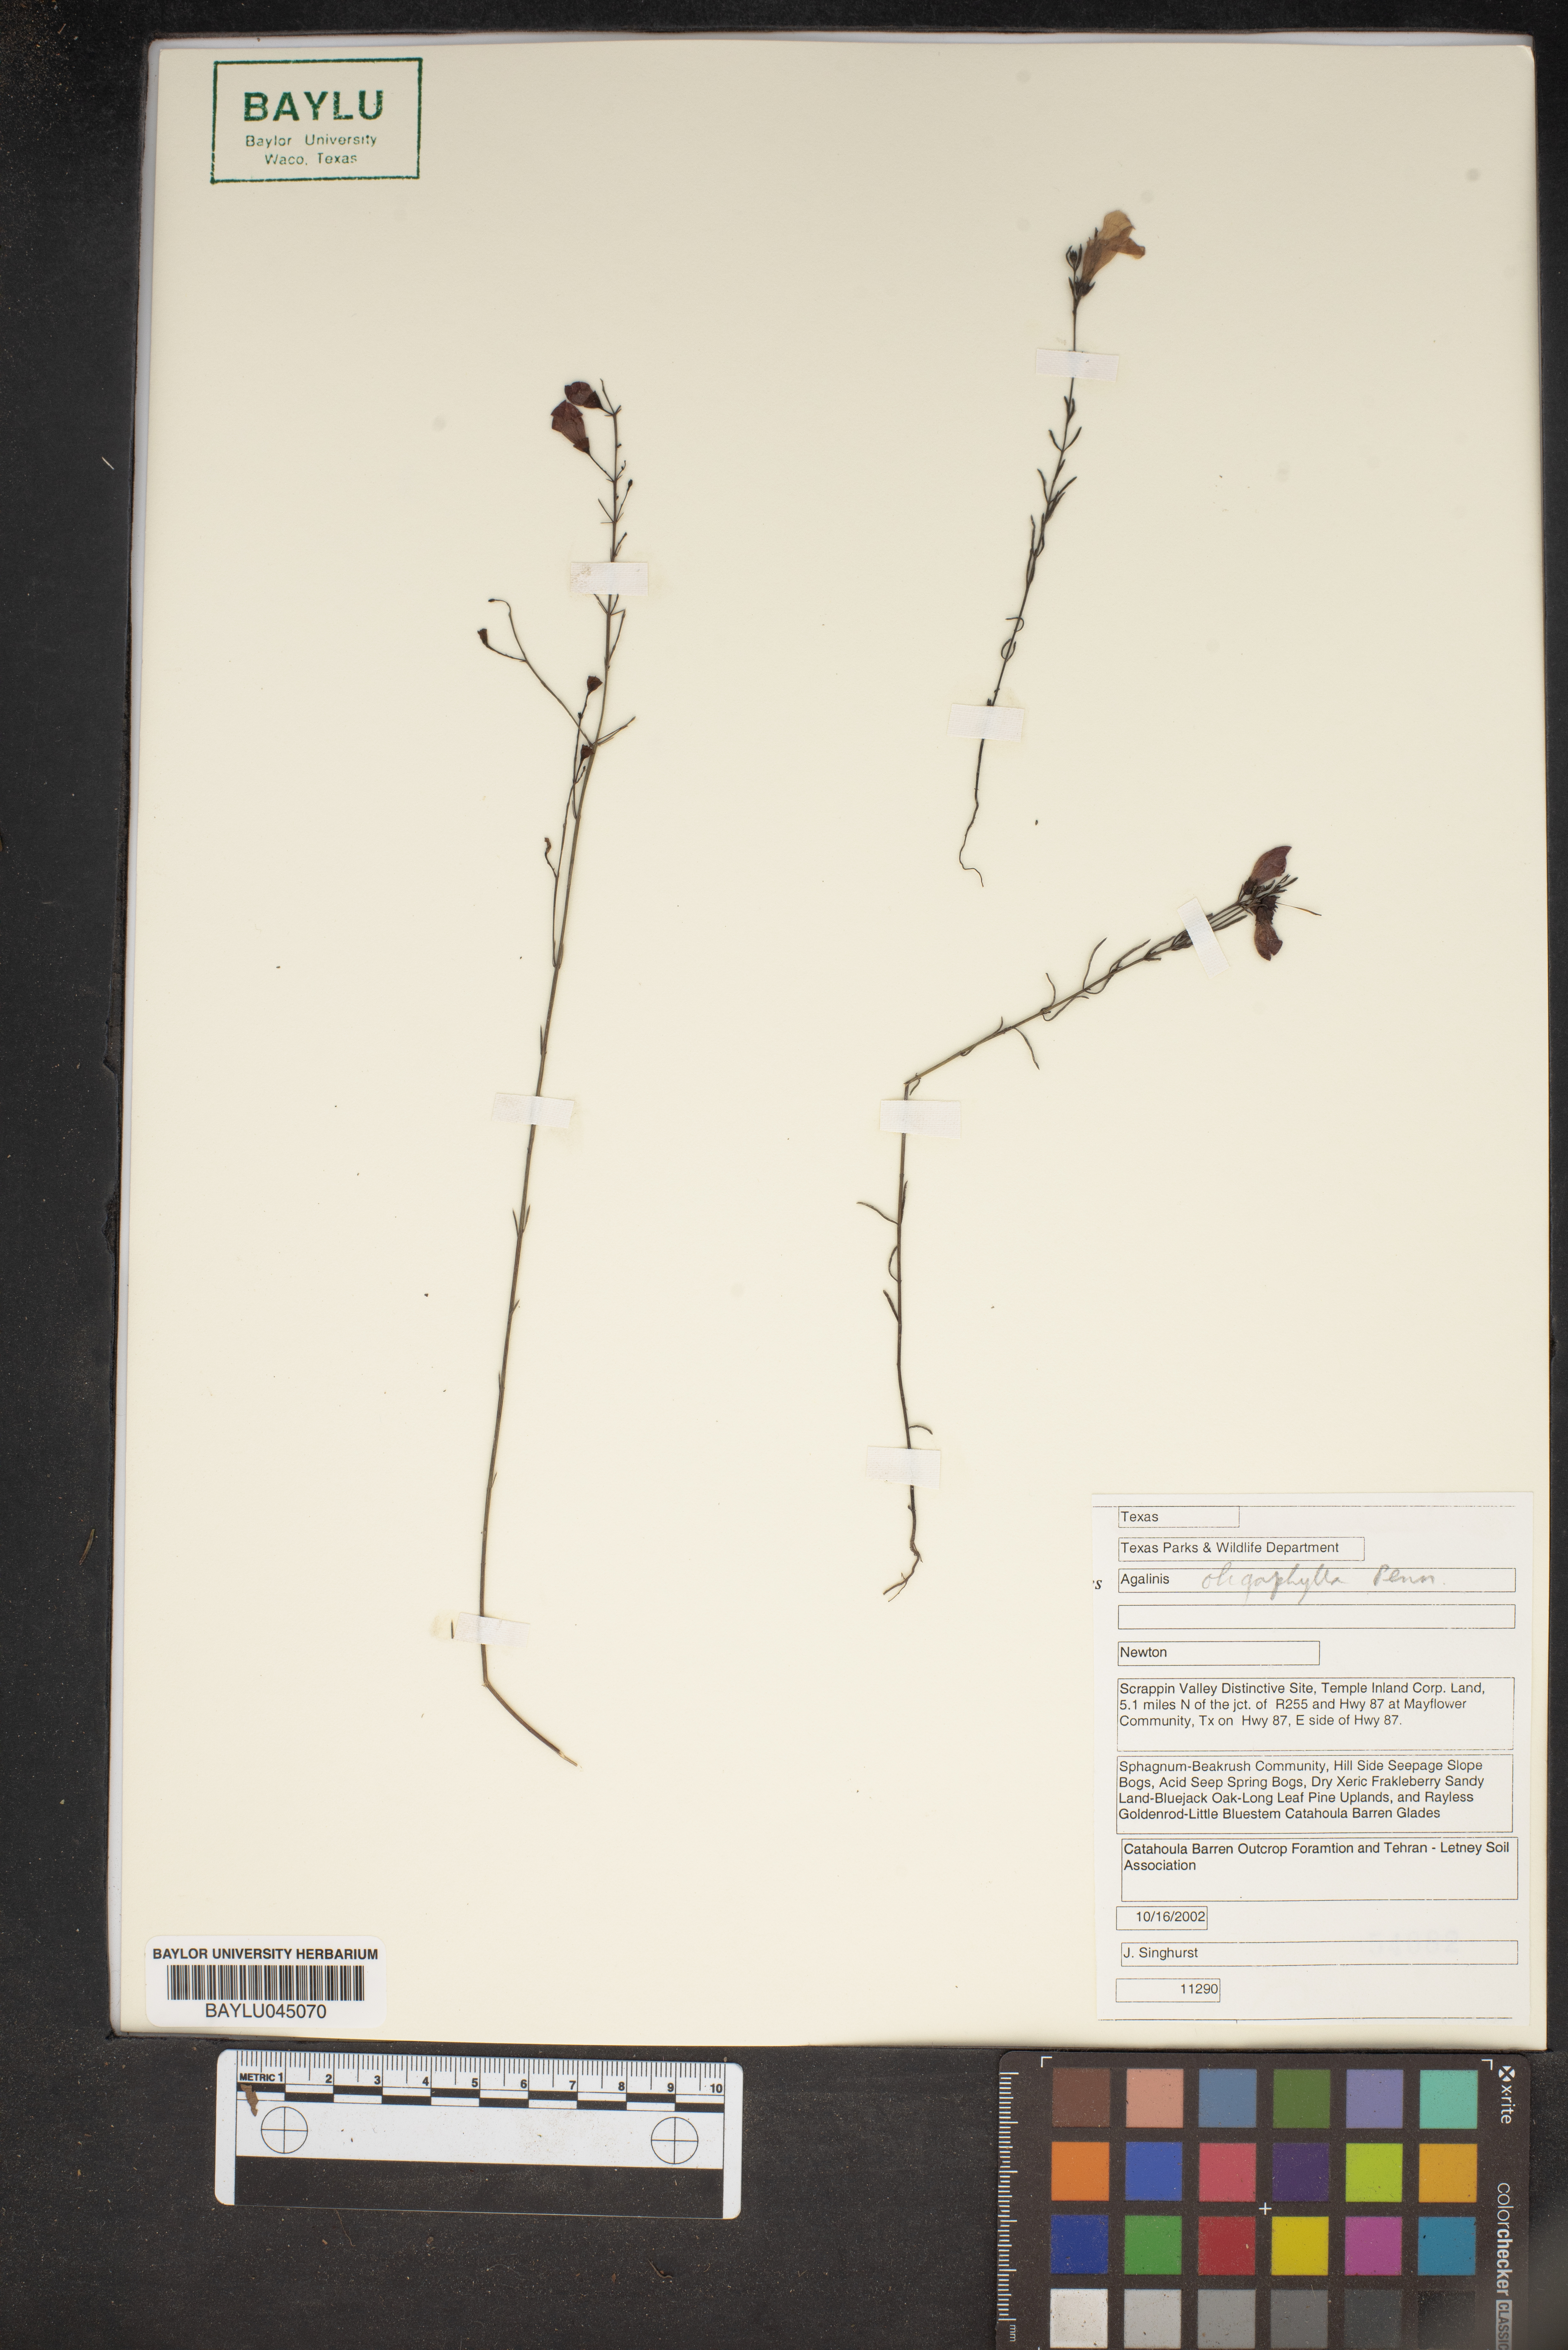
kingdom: Plantae
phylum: Tracheophyta
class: Magnoliopsida
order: Lamiales
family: Orobanchaceae
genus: Agalinis
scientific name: Agalinis oligophylla
